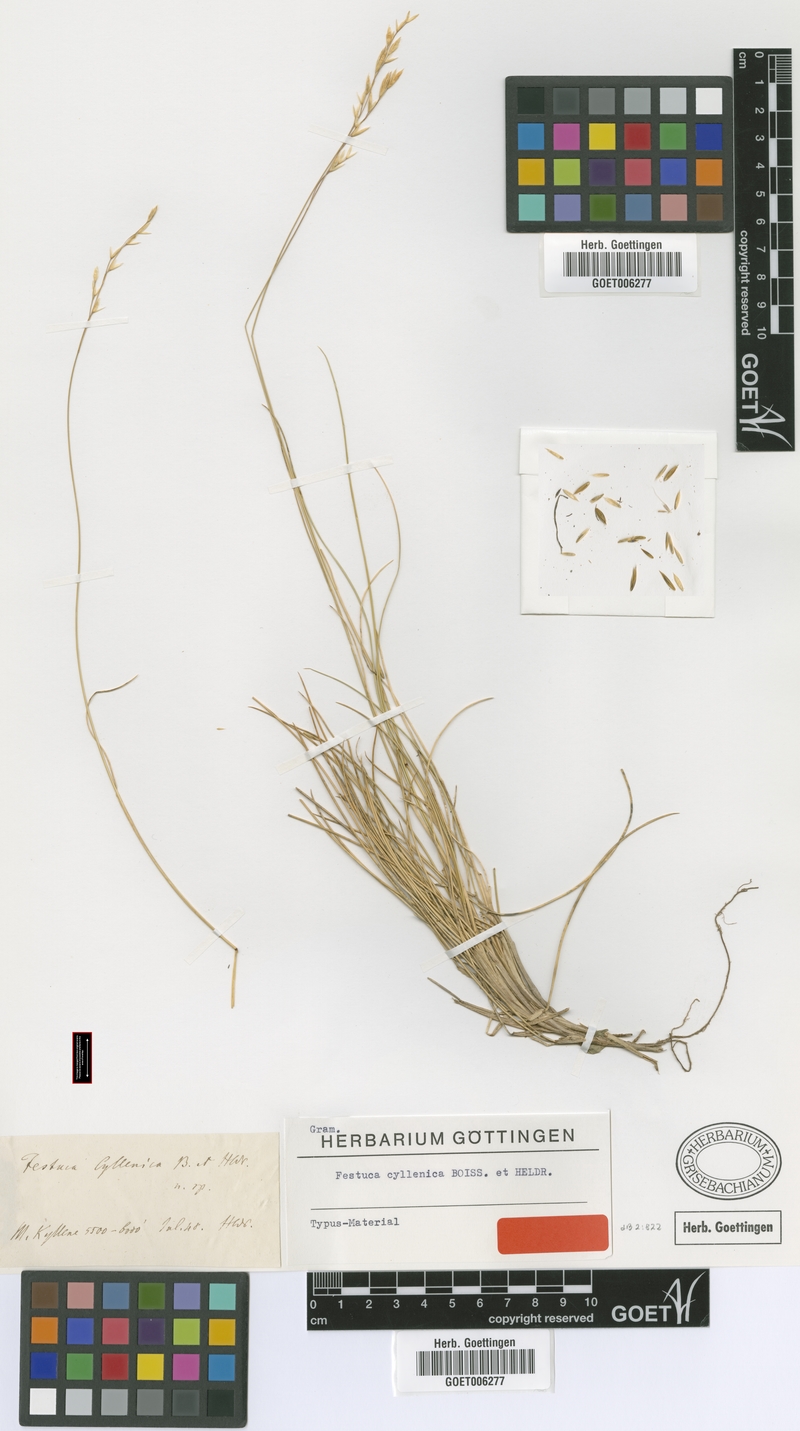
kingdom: Plantae
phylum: Tracheophyta
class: Liliopsida
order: Poales
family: Poaceae
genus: Festuca
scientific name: Festuca cyllenica
